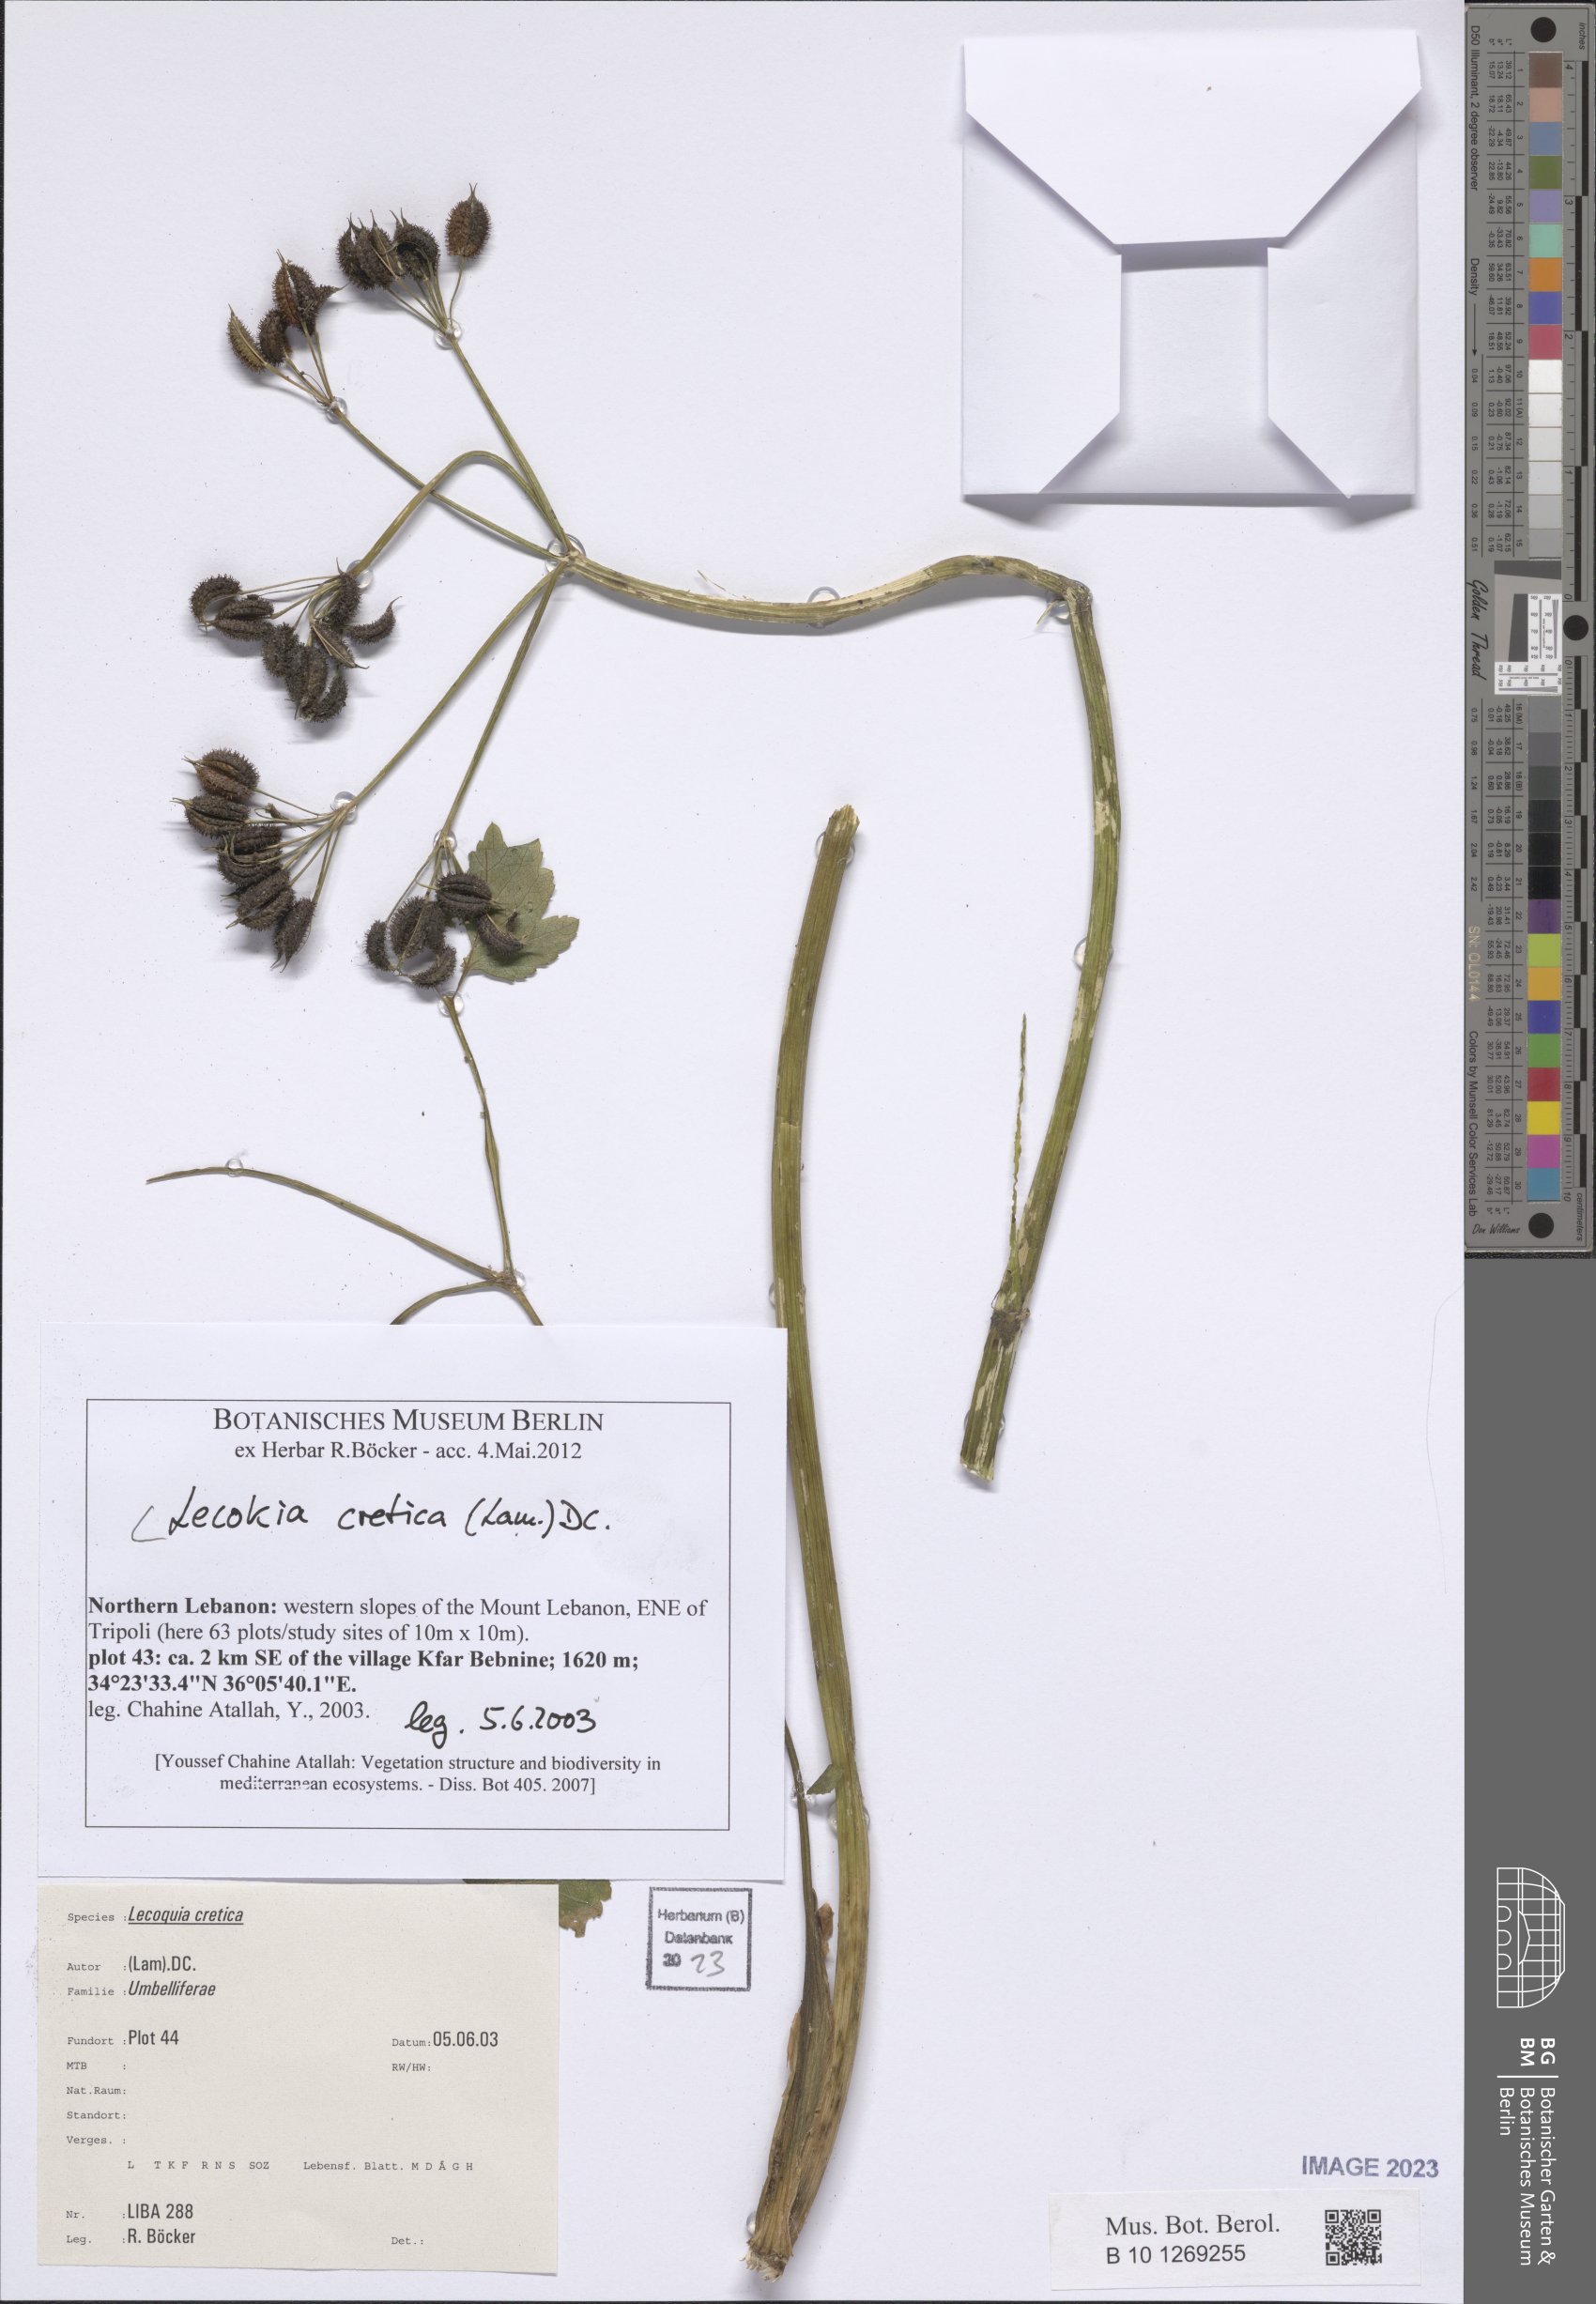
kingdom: Plantae
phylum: Tracheophyta
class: Magnoliopsida
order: Apiales
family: Apiaceae
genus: Lecokia
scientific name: Lecokia cretica
